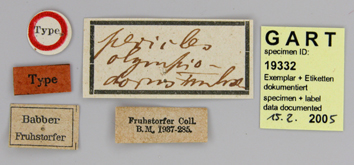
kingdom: Animalia
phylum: Arthropoda
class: Insecta
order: Lepidoptera
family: Papilionidae
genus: Papilio
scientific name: Papilio pericles
